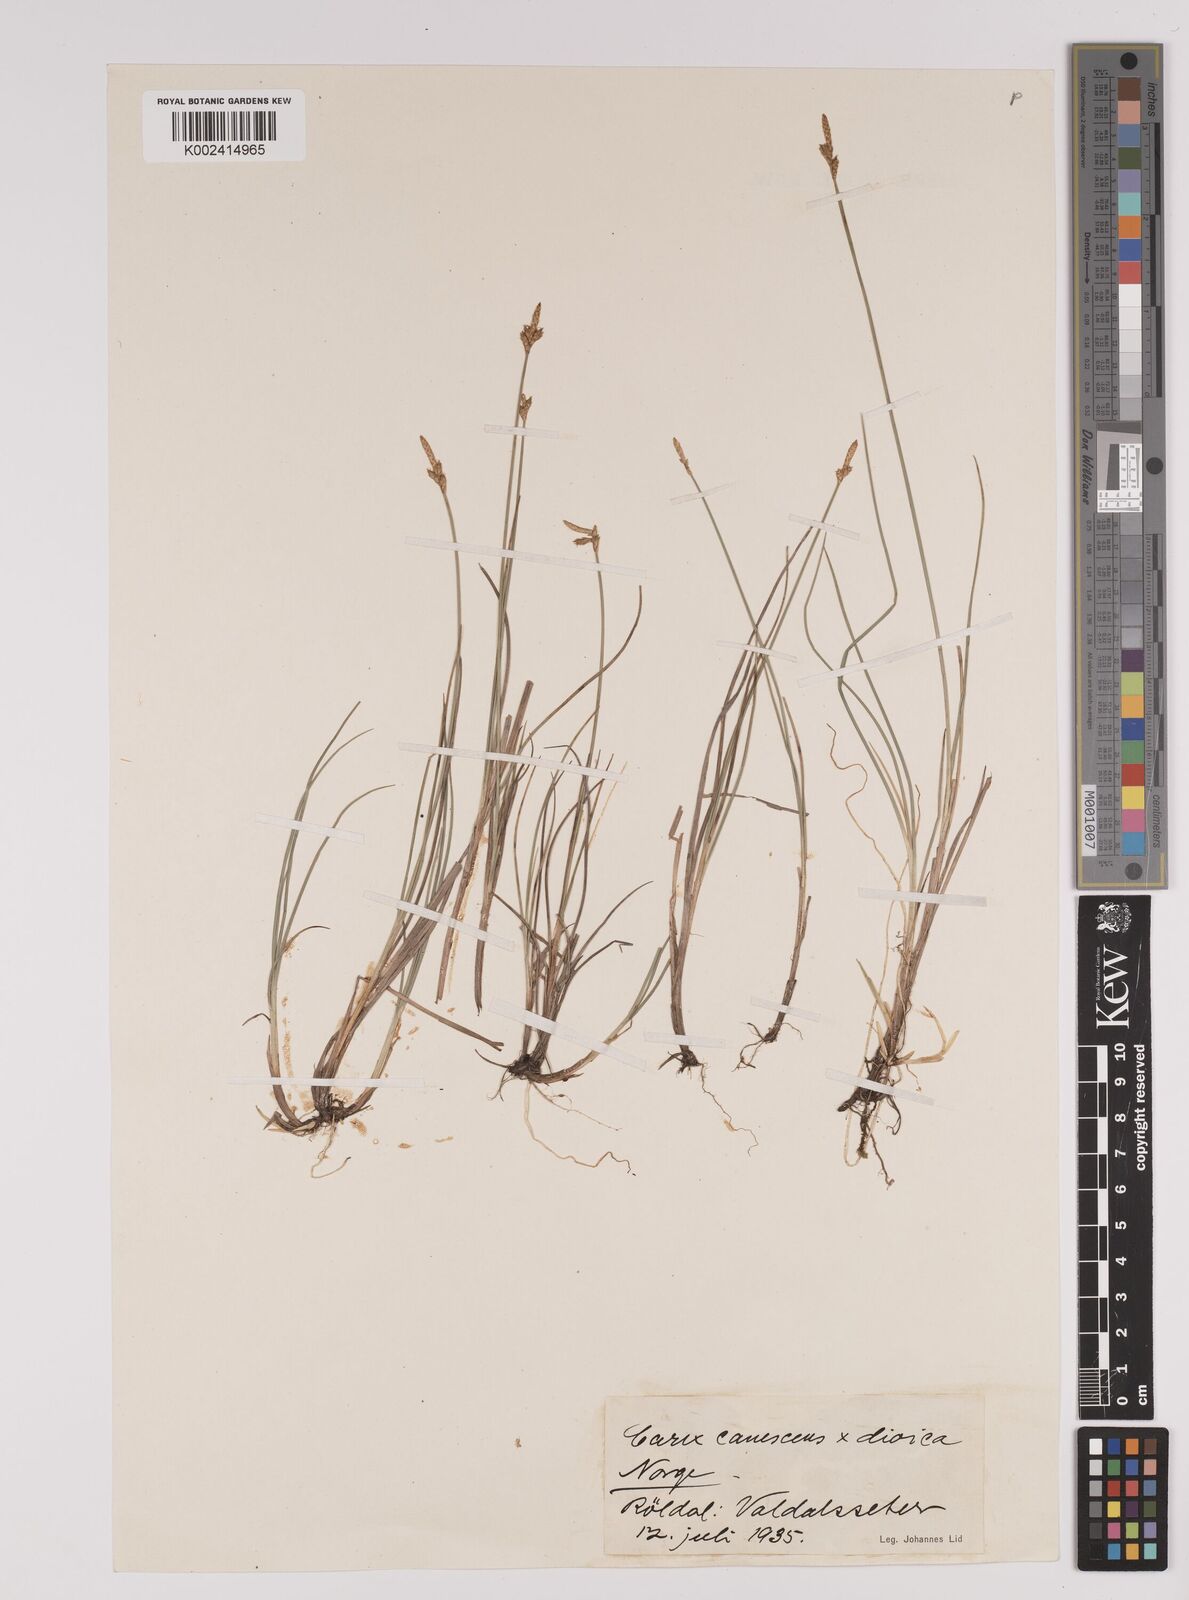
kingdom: Plantae
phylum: Tracheophyta
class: Liliopsida
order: Poales
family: Cyperaceae
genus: Carex
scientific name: Carex dioica
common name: Dioecious sedge
